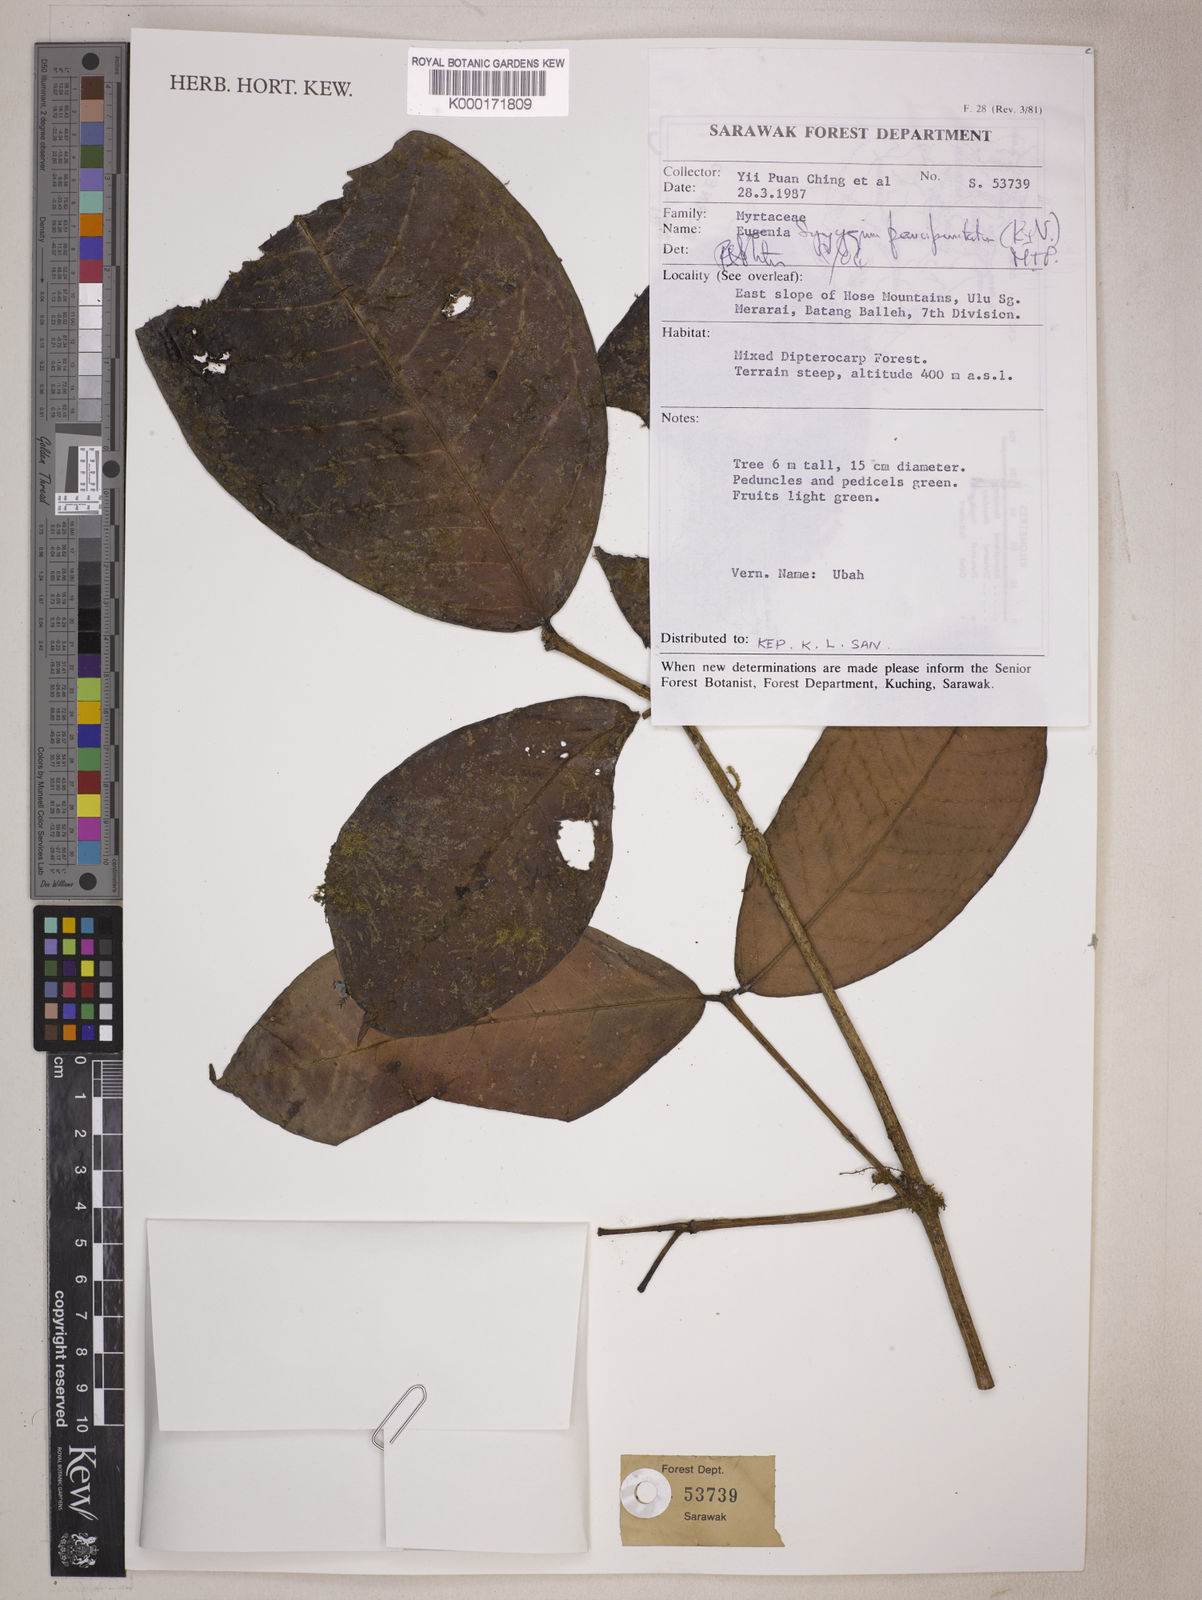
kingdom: Plantae
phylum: Tracheophyta
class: Magnoliopsida
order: Myrtales
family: Myrtaceae
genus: Syzygium
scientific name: Syzygium paucipunctatum
